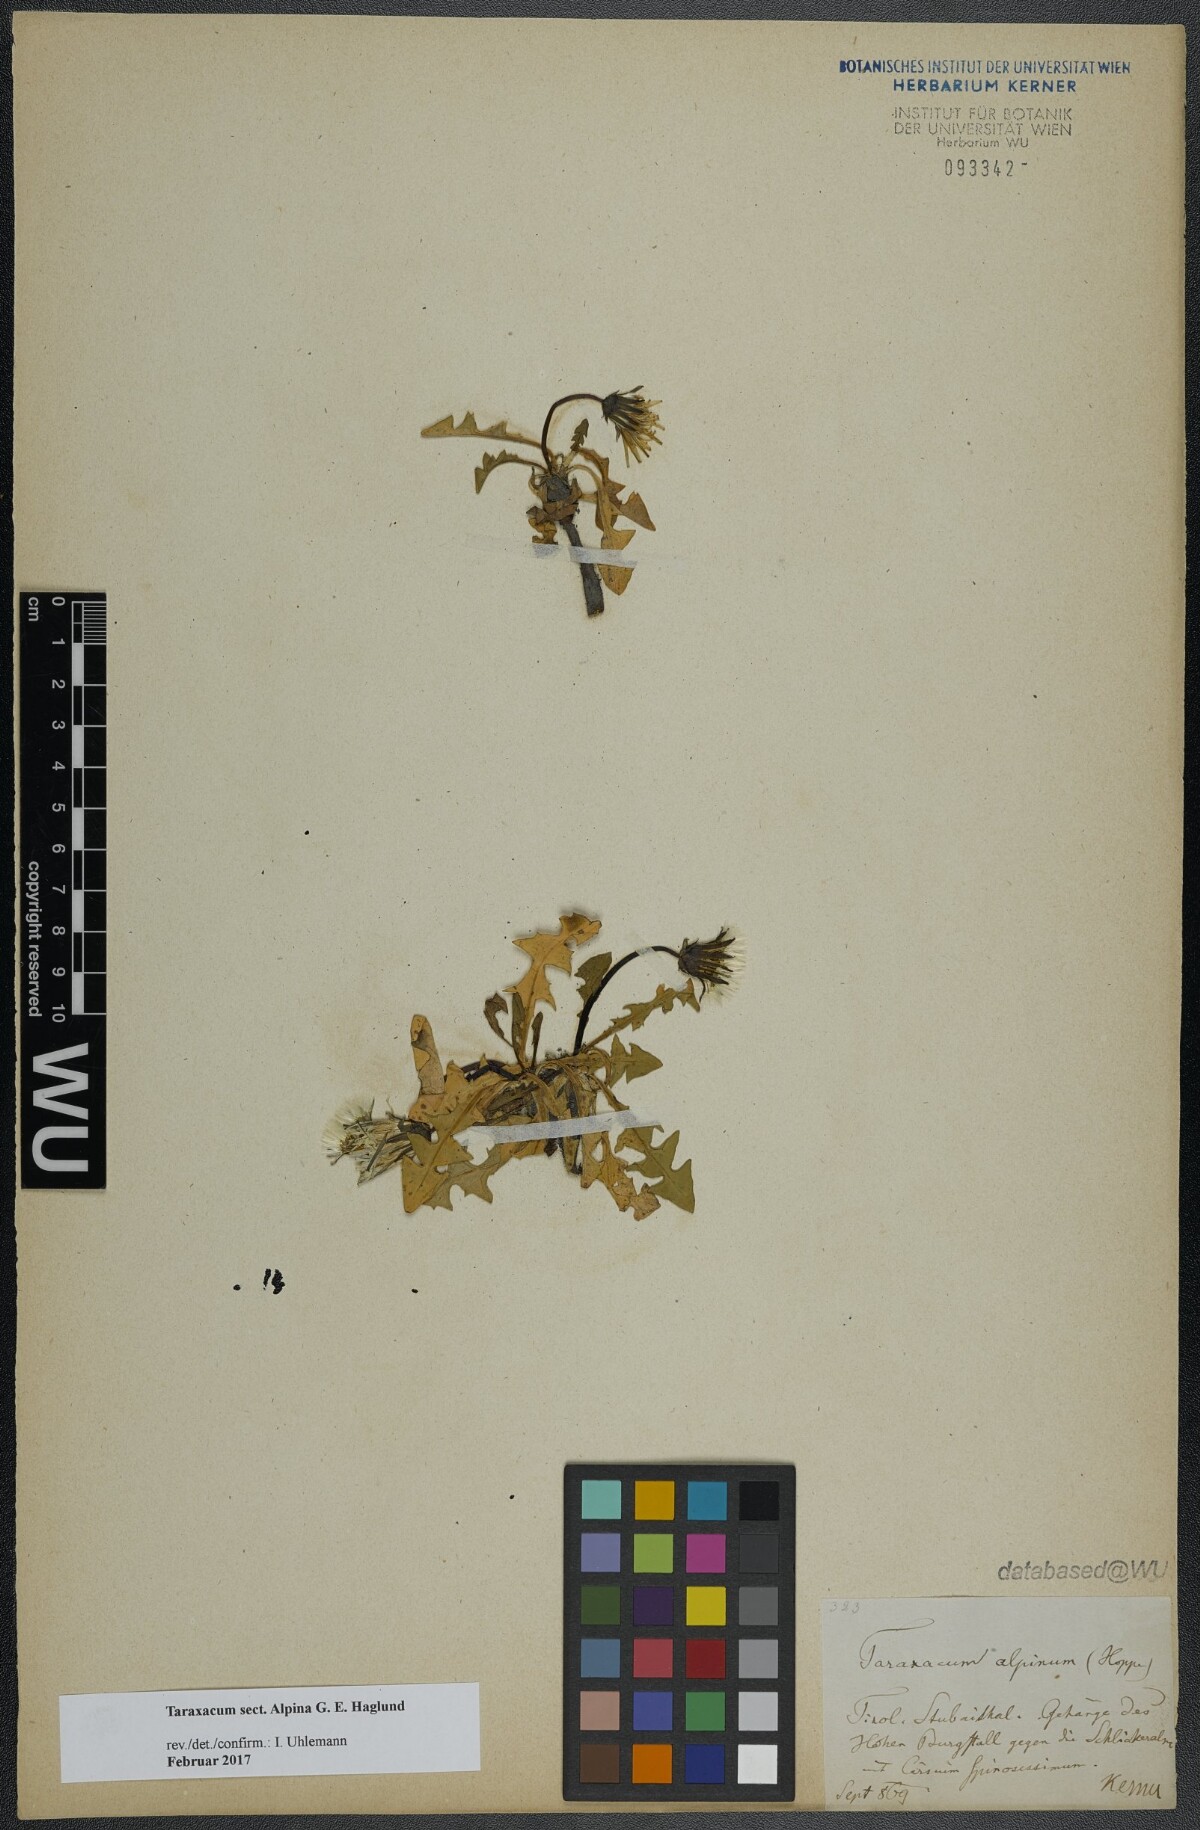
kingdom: Plantae
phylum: Tracheophyta
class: Magnoliopsida
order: Asterales
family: Asteraceae
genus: Taraxacum
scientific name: Taraxacum
